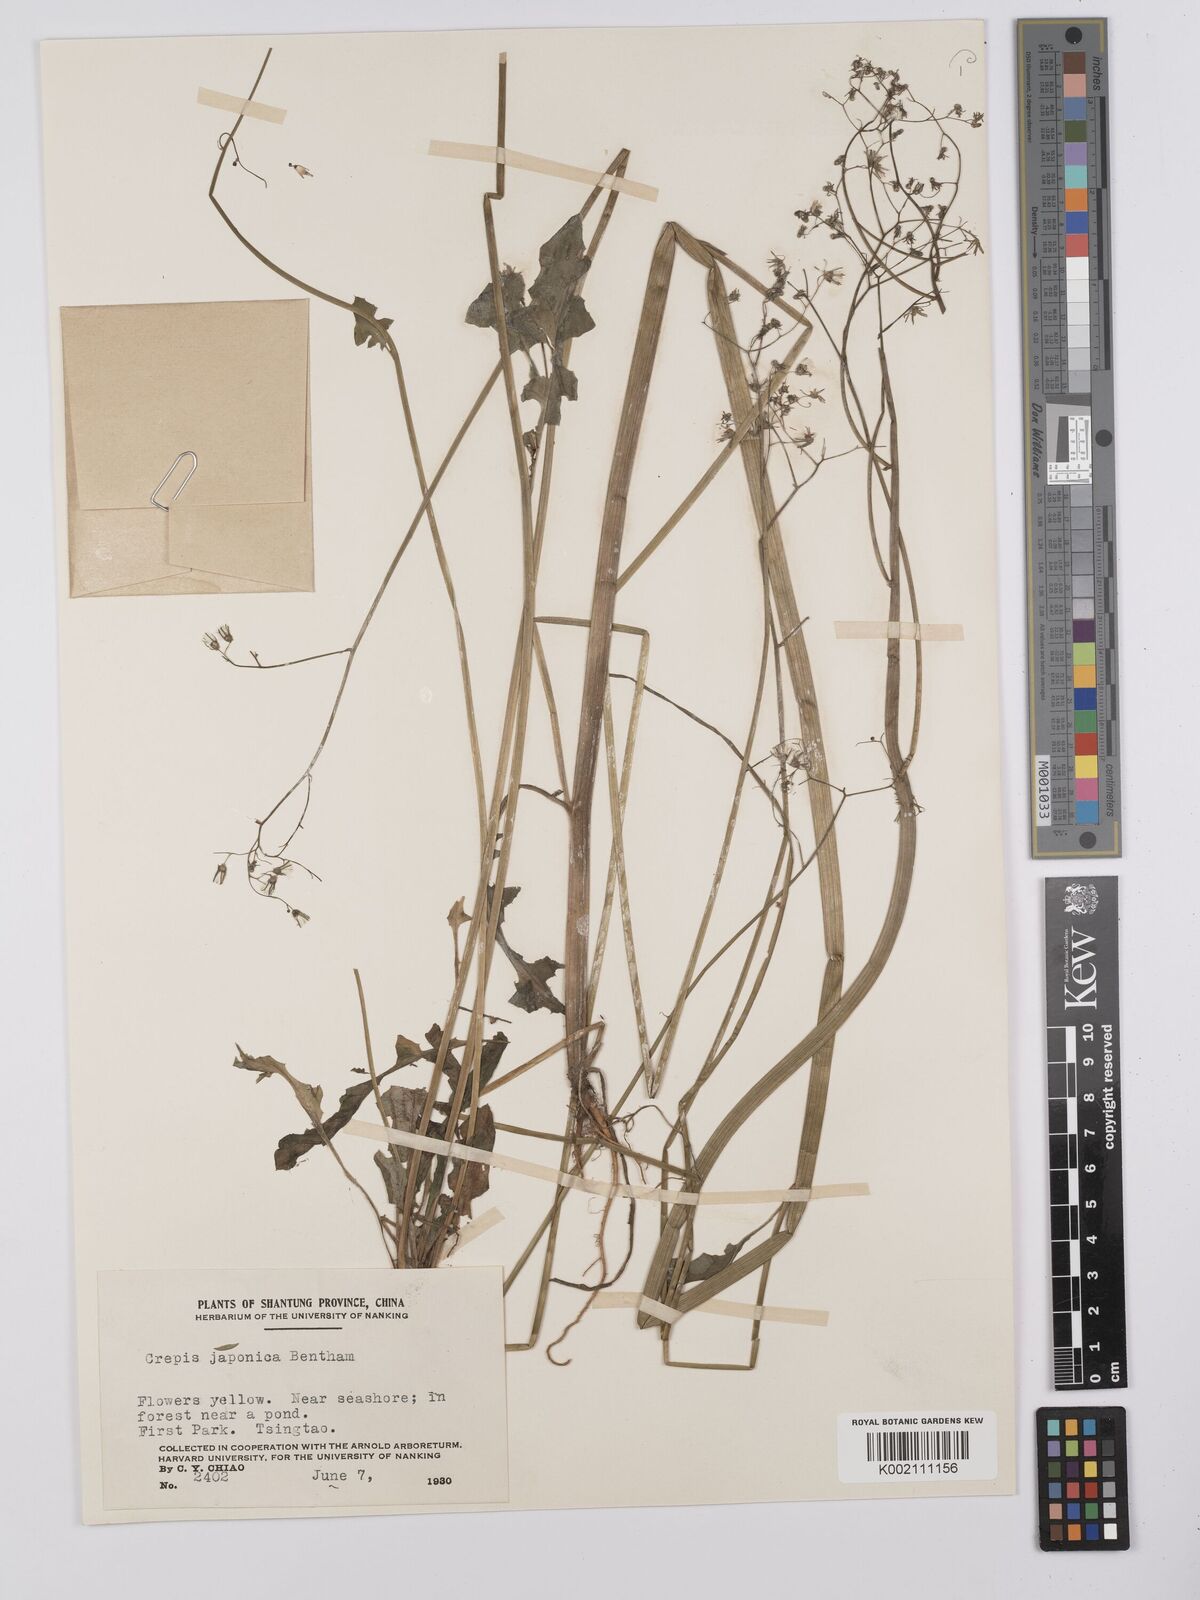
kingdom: Plantae
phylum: Tracheophyta
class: Magnoliopsida
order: Asterales
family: Asteraceae
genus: Youngia
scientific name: Youngia japonica
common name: Oriental false hawksbeard
